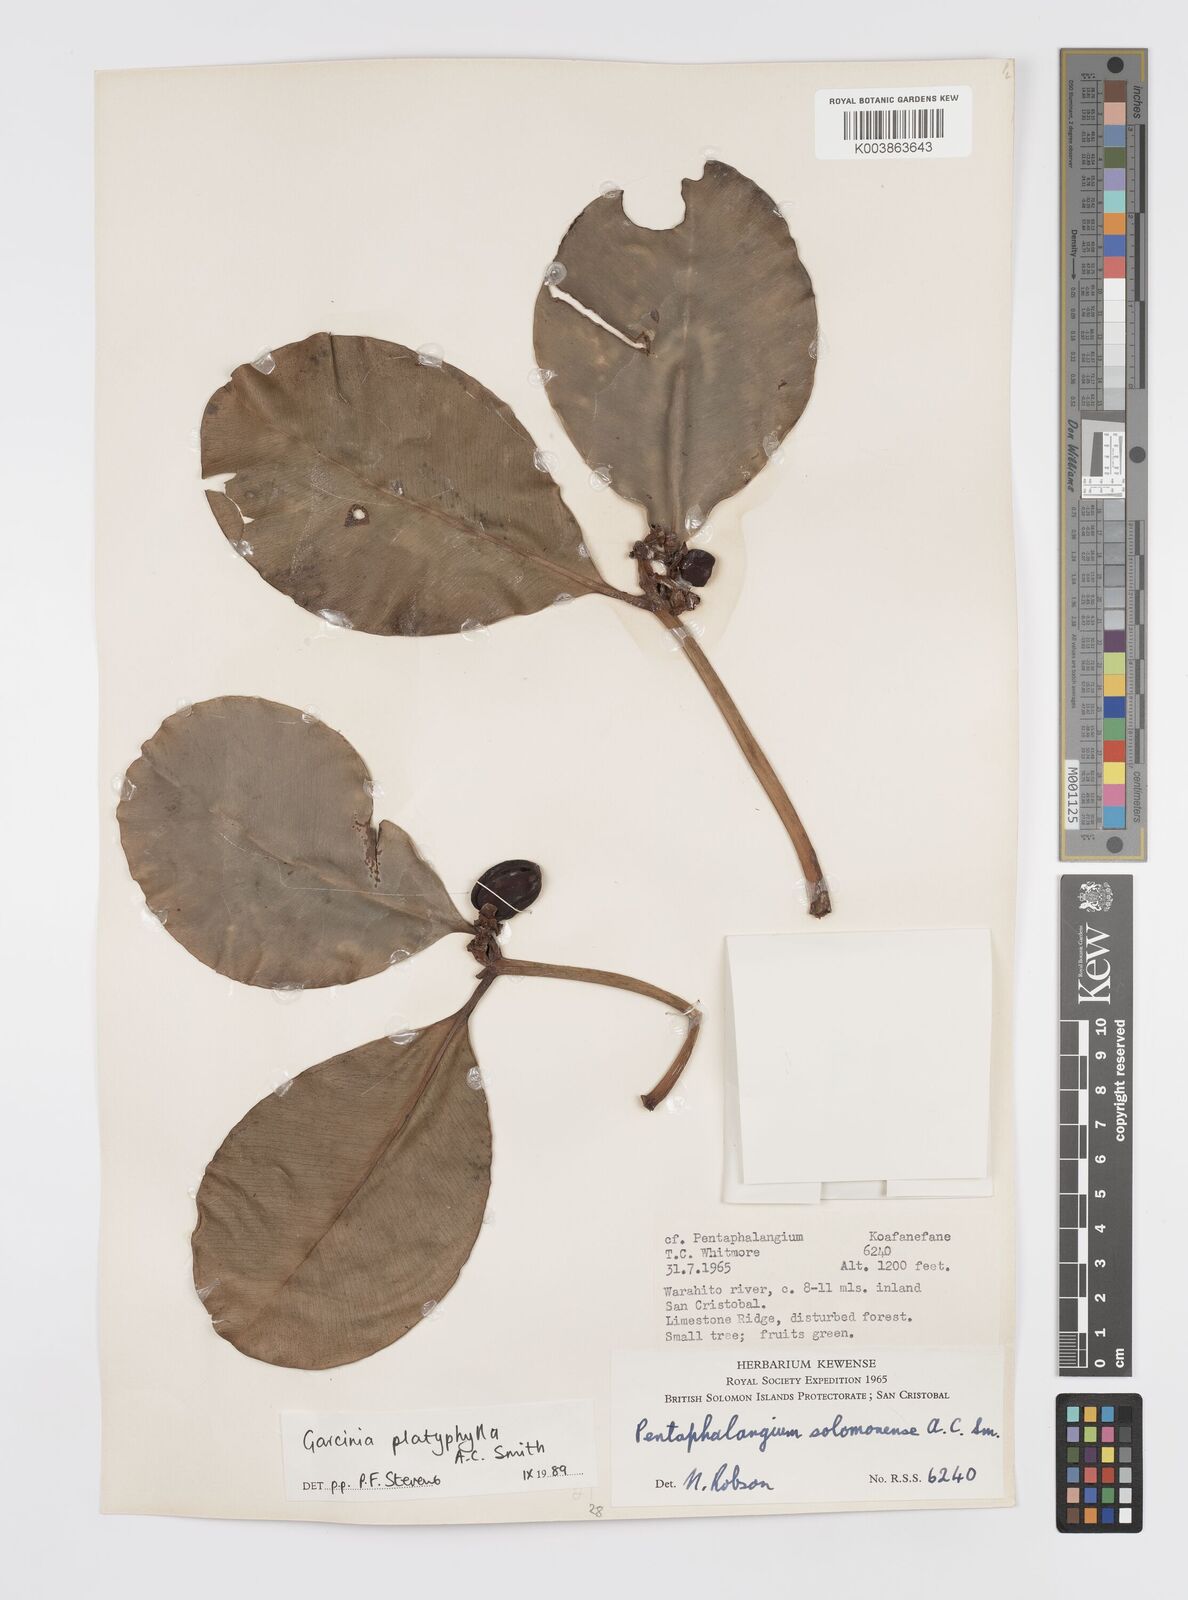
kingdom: Plantae
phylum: Tracheophyta
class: Magnoliopsida
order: Malpighiales
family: Clusiaceae
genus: Garcinia
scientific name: Garcinia platyphylla
